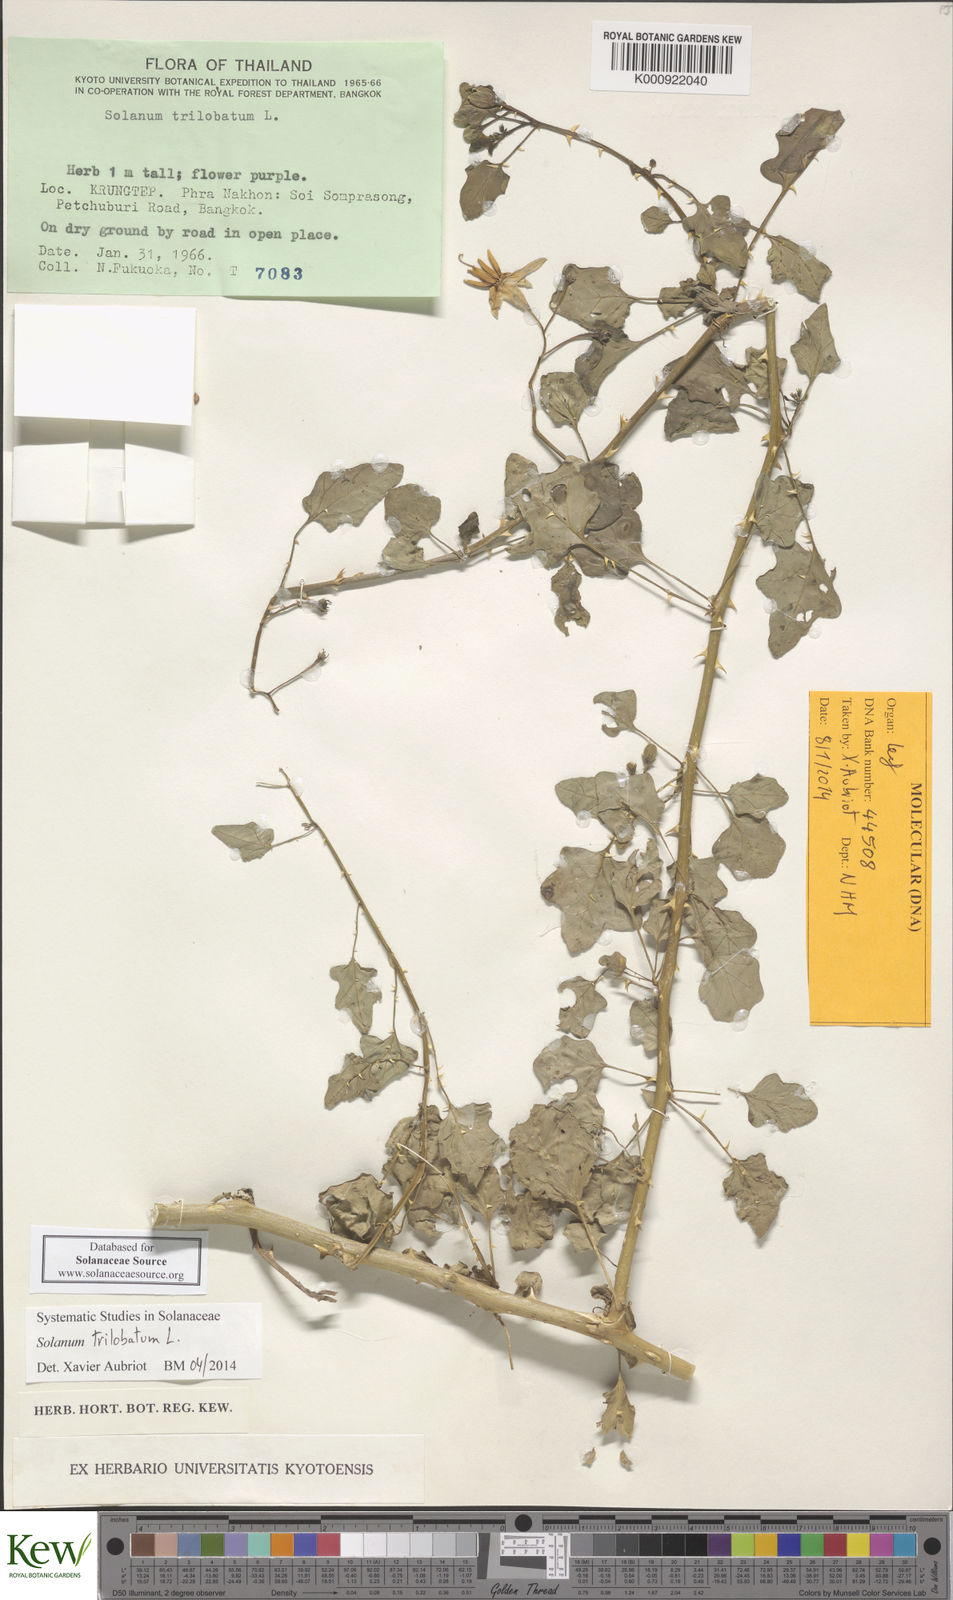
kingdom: Plantae
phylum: Tracheophyta
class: Magnoliopsida
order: Solanales
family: Solanaceae
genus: Solanum
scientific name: Solanum trilobatum
